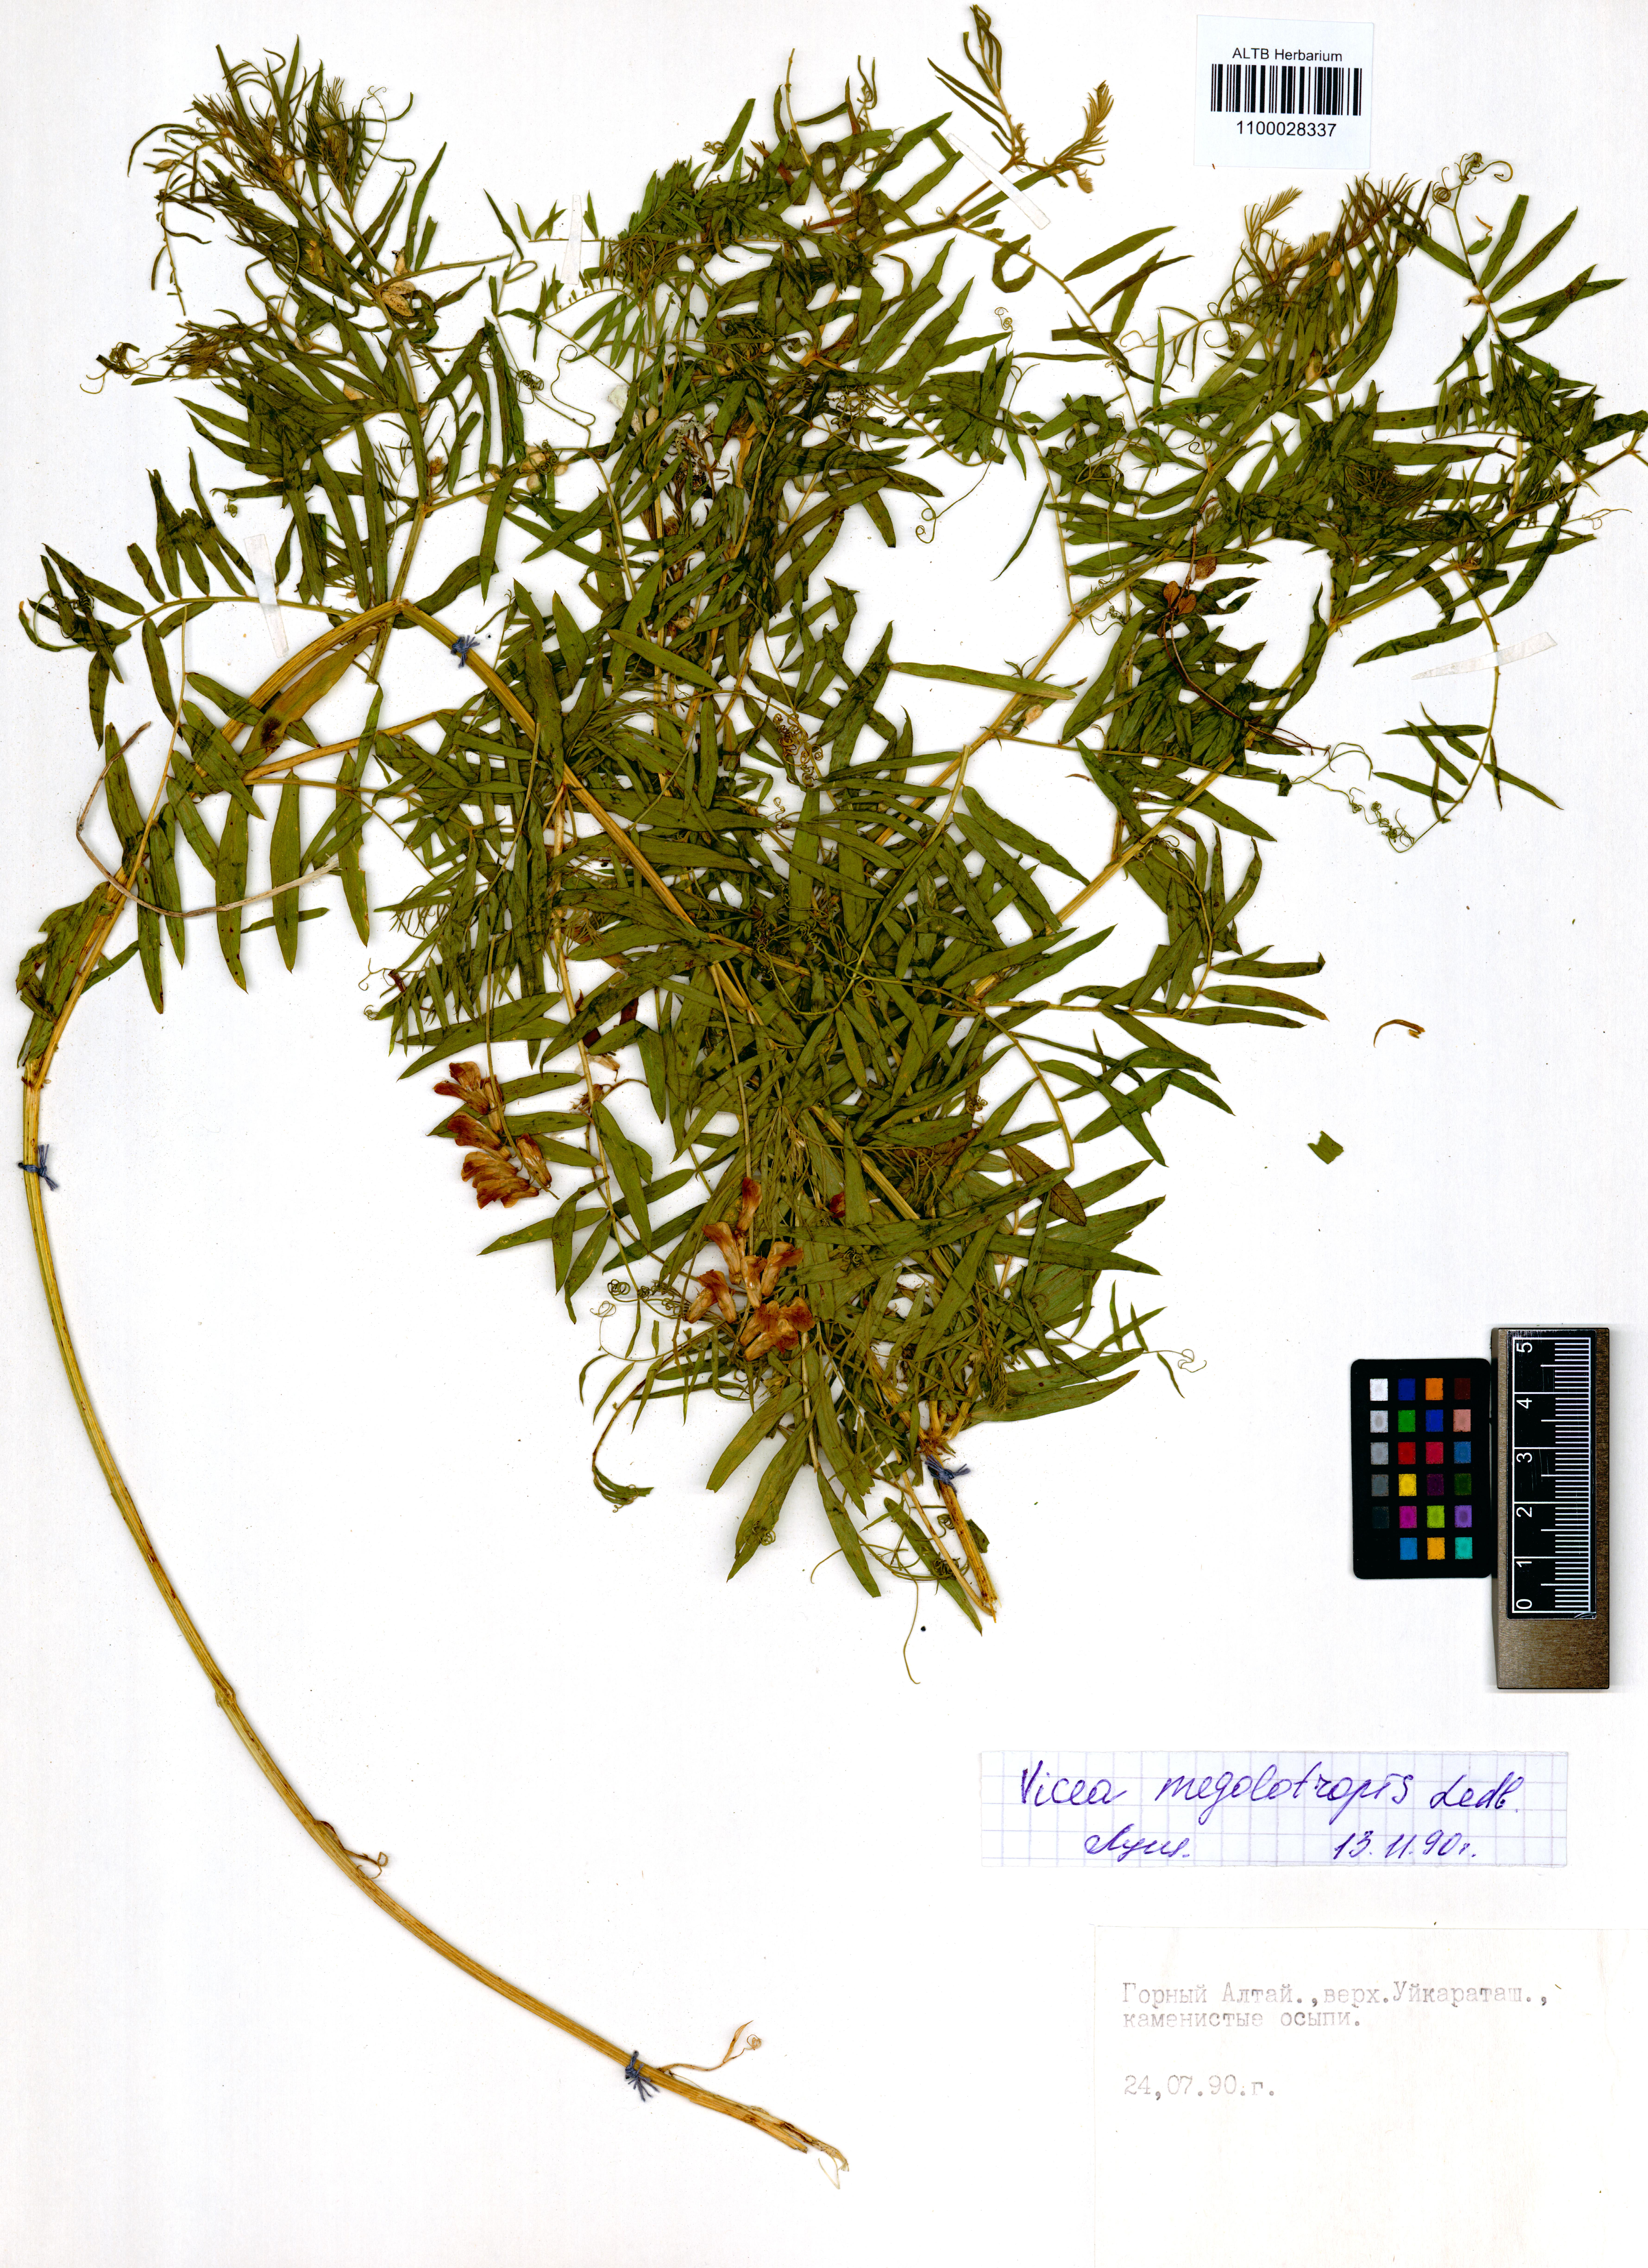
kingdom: Plantae
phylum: Tracheophyta
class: Magnoliopsida
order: Fabales
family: Fabaceae
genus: Vicia
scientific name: Vicia megalotropis
